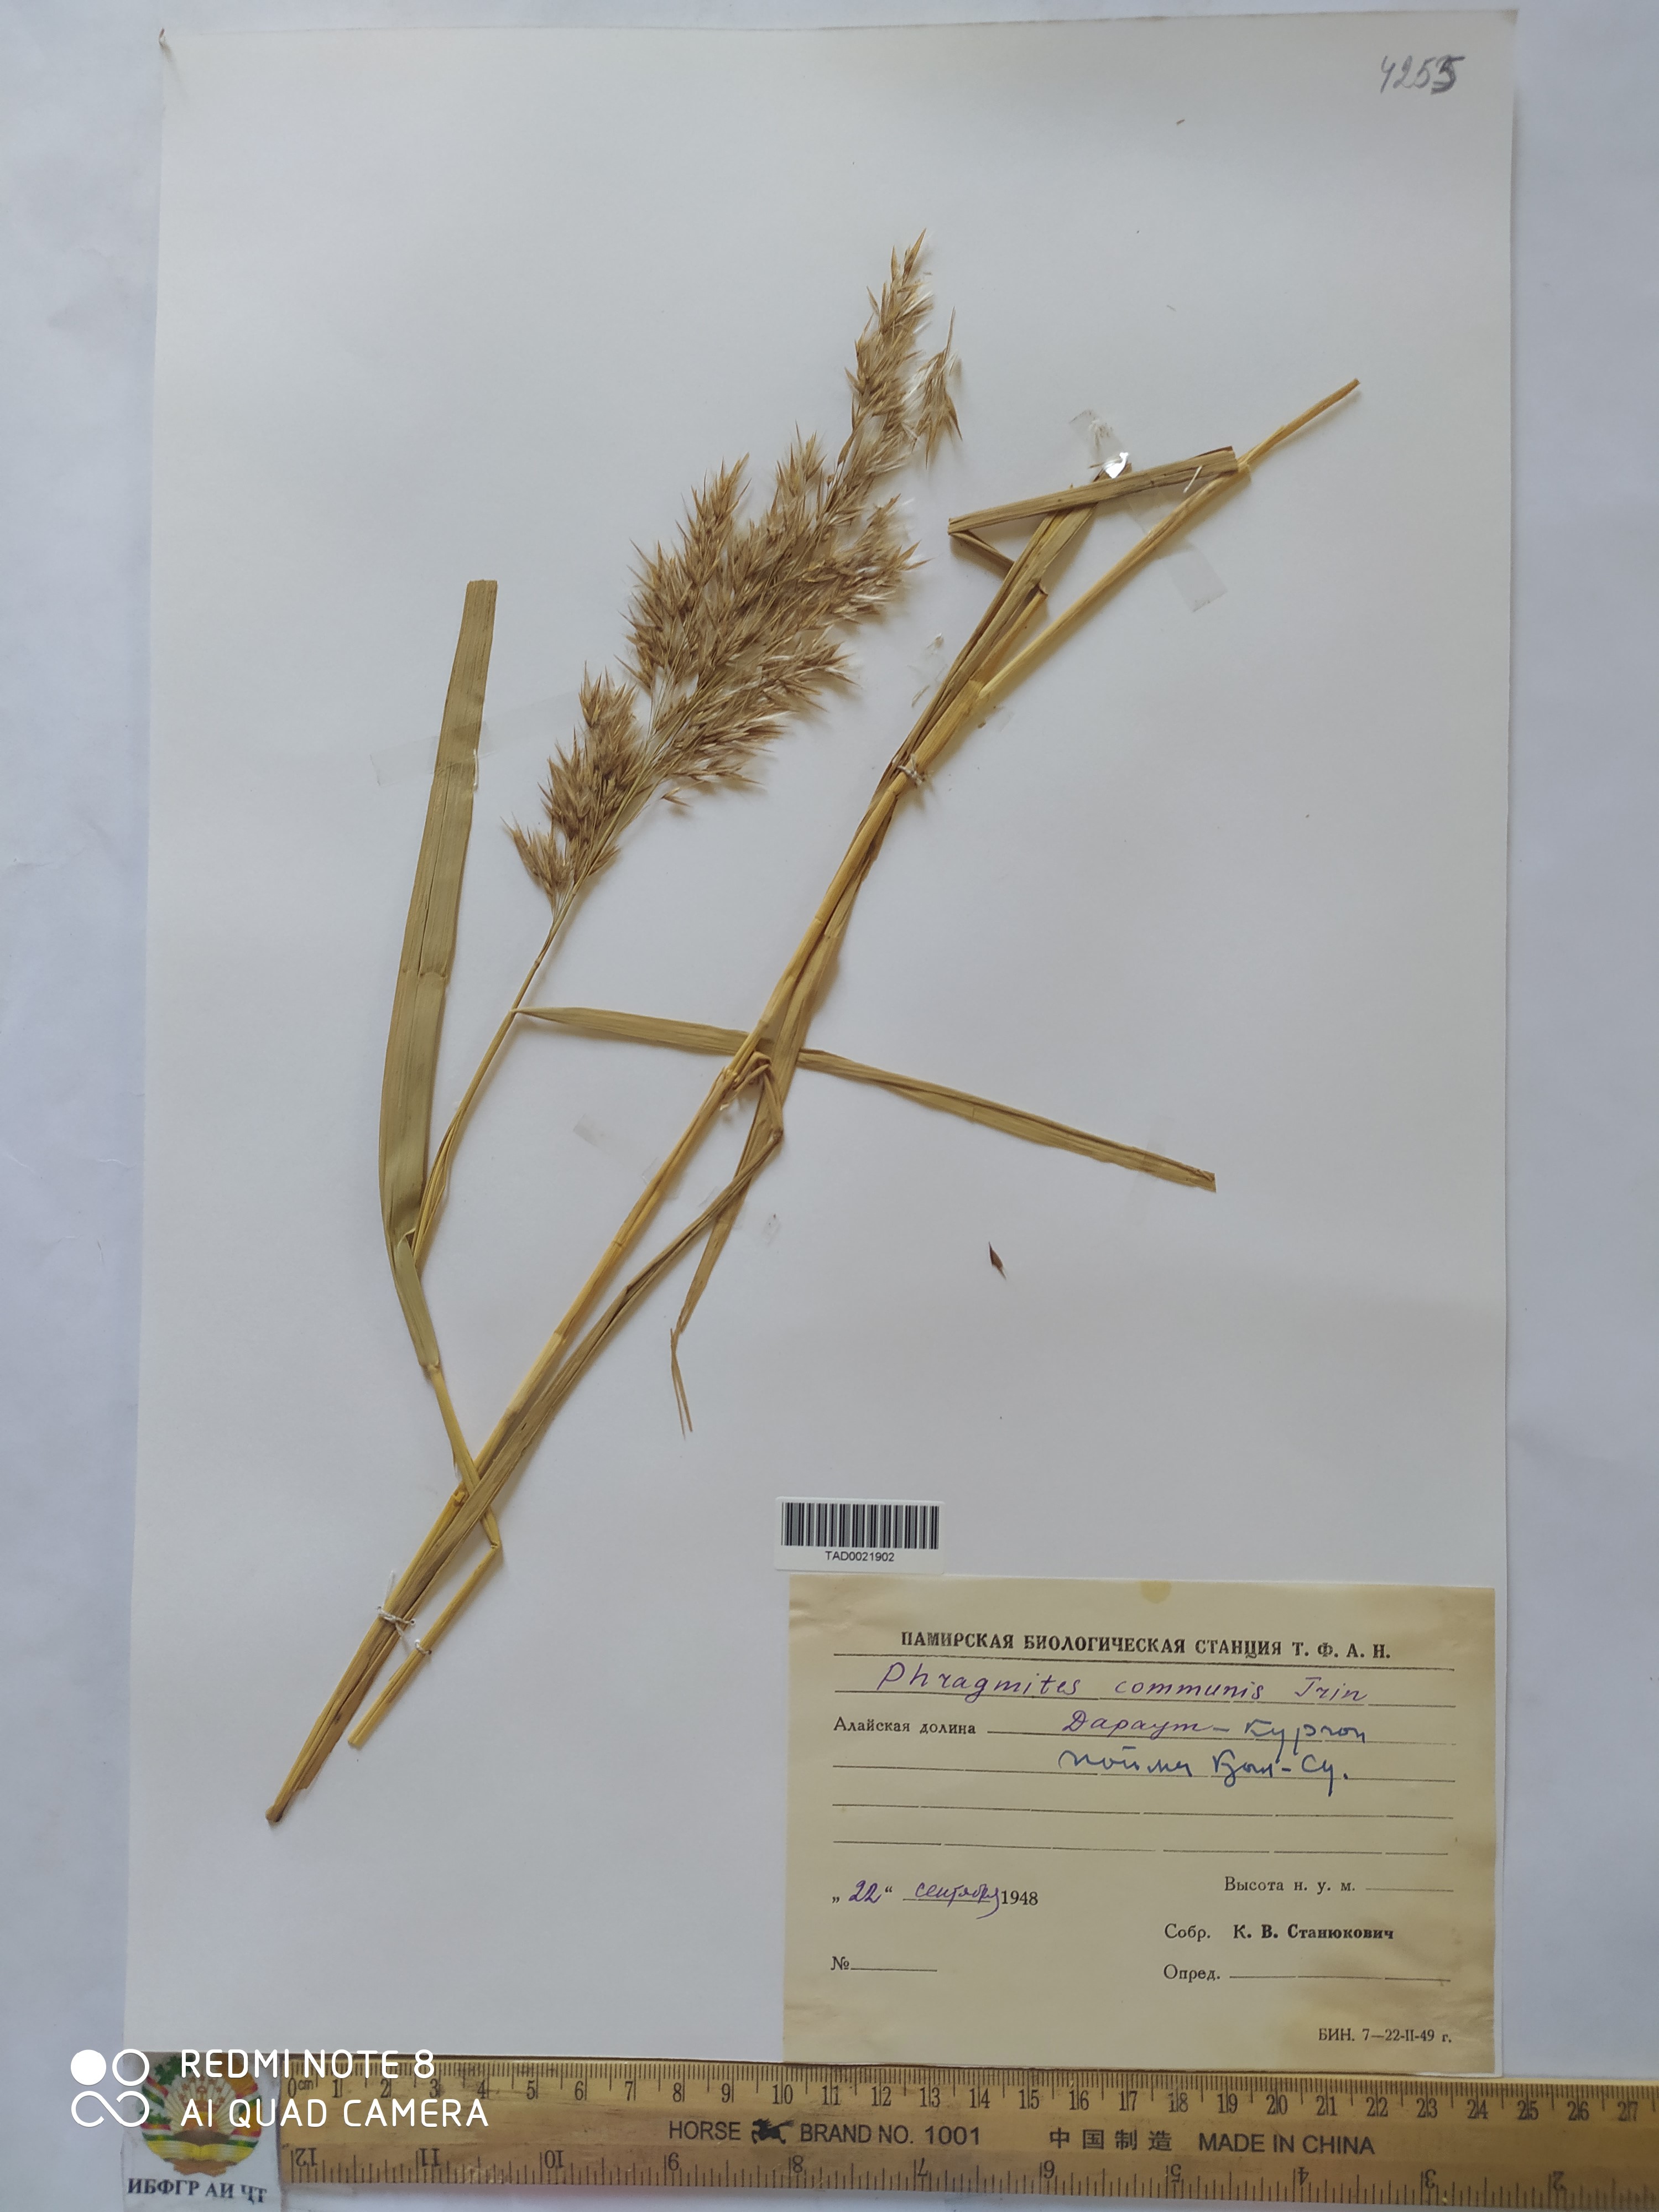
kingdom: Plantae
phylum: Tracheophyta
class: Liliopsida
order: Poales
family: Poaceae
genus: Phragmites
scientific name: Phragmites australis
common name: Common reed
